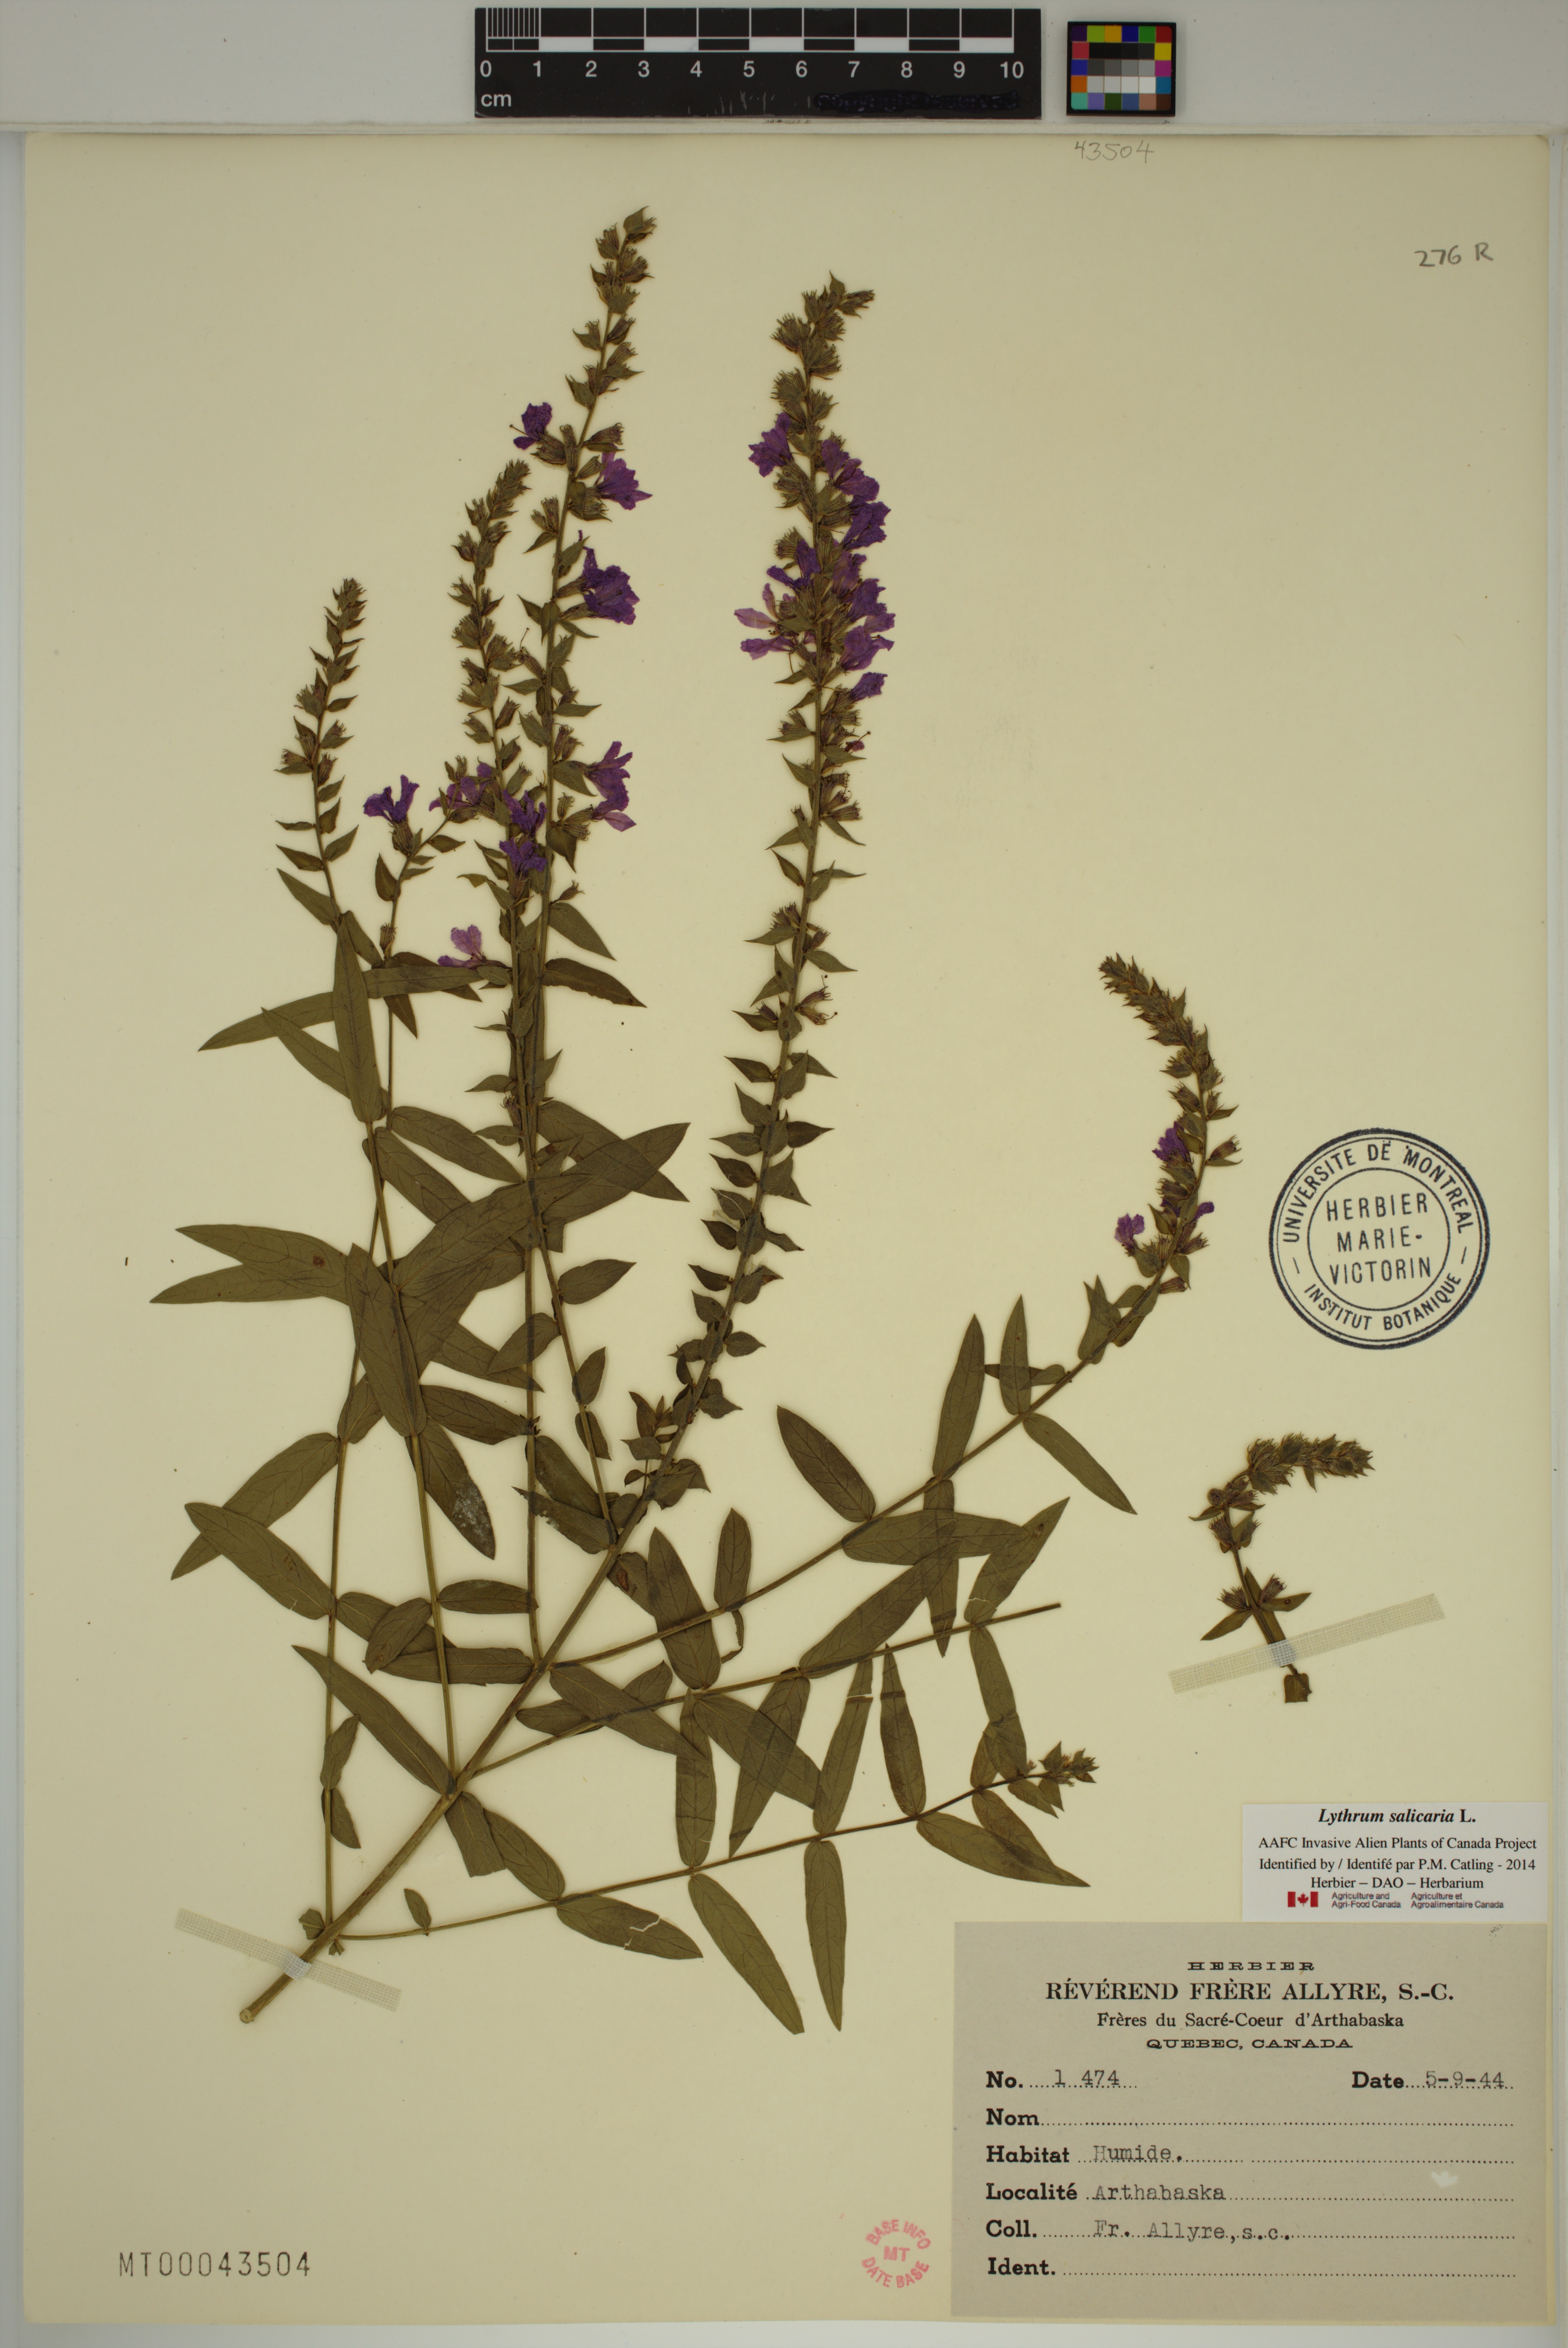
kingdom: Plantae
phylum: Tracheophyta
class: Magnoliopsida
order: Myrtales
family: Lythraceae
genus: Lythrum
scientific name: Lythrum salicaria
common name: Purple loosestrife
